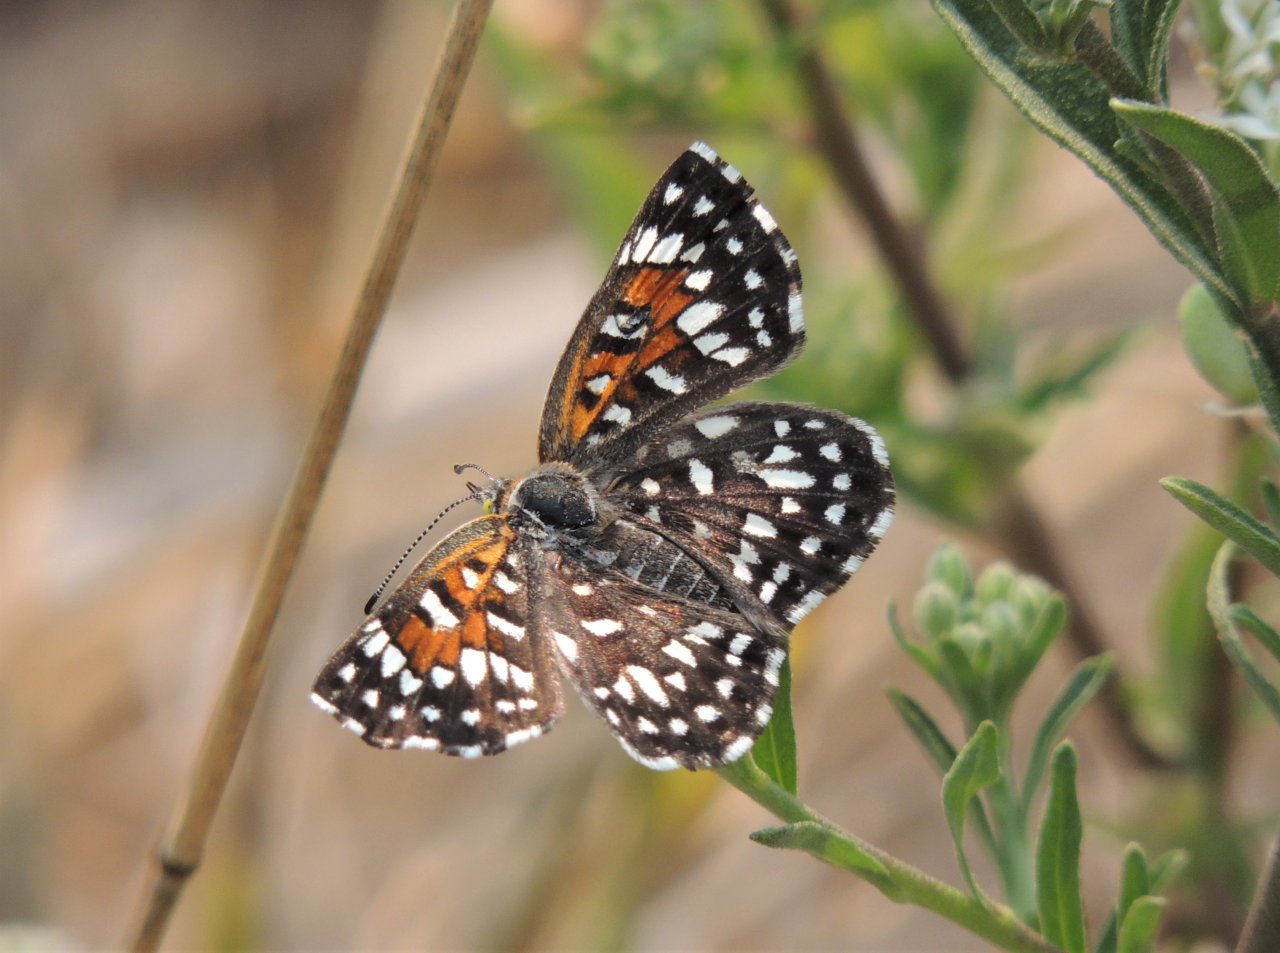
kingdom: Animalia
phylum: Arthropoda
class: Insecta
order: Lepidoptera
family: Riodinidae
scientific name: Riodinidae
